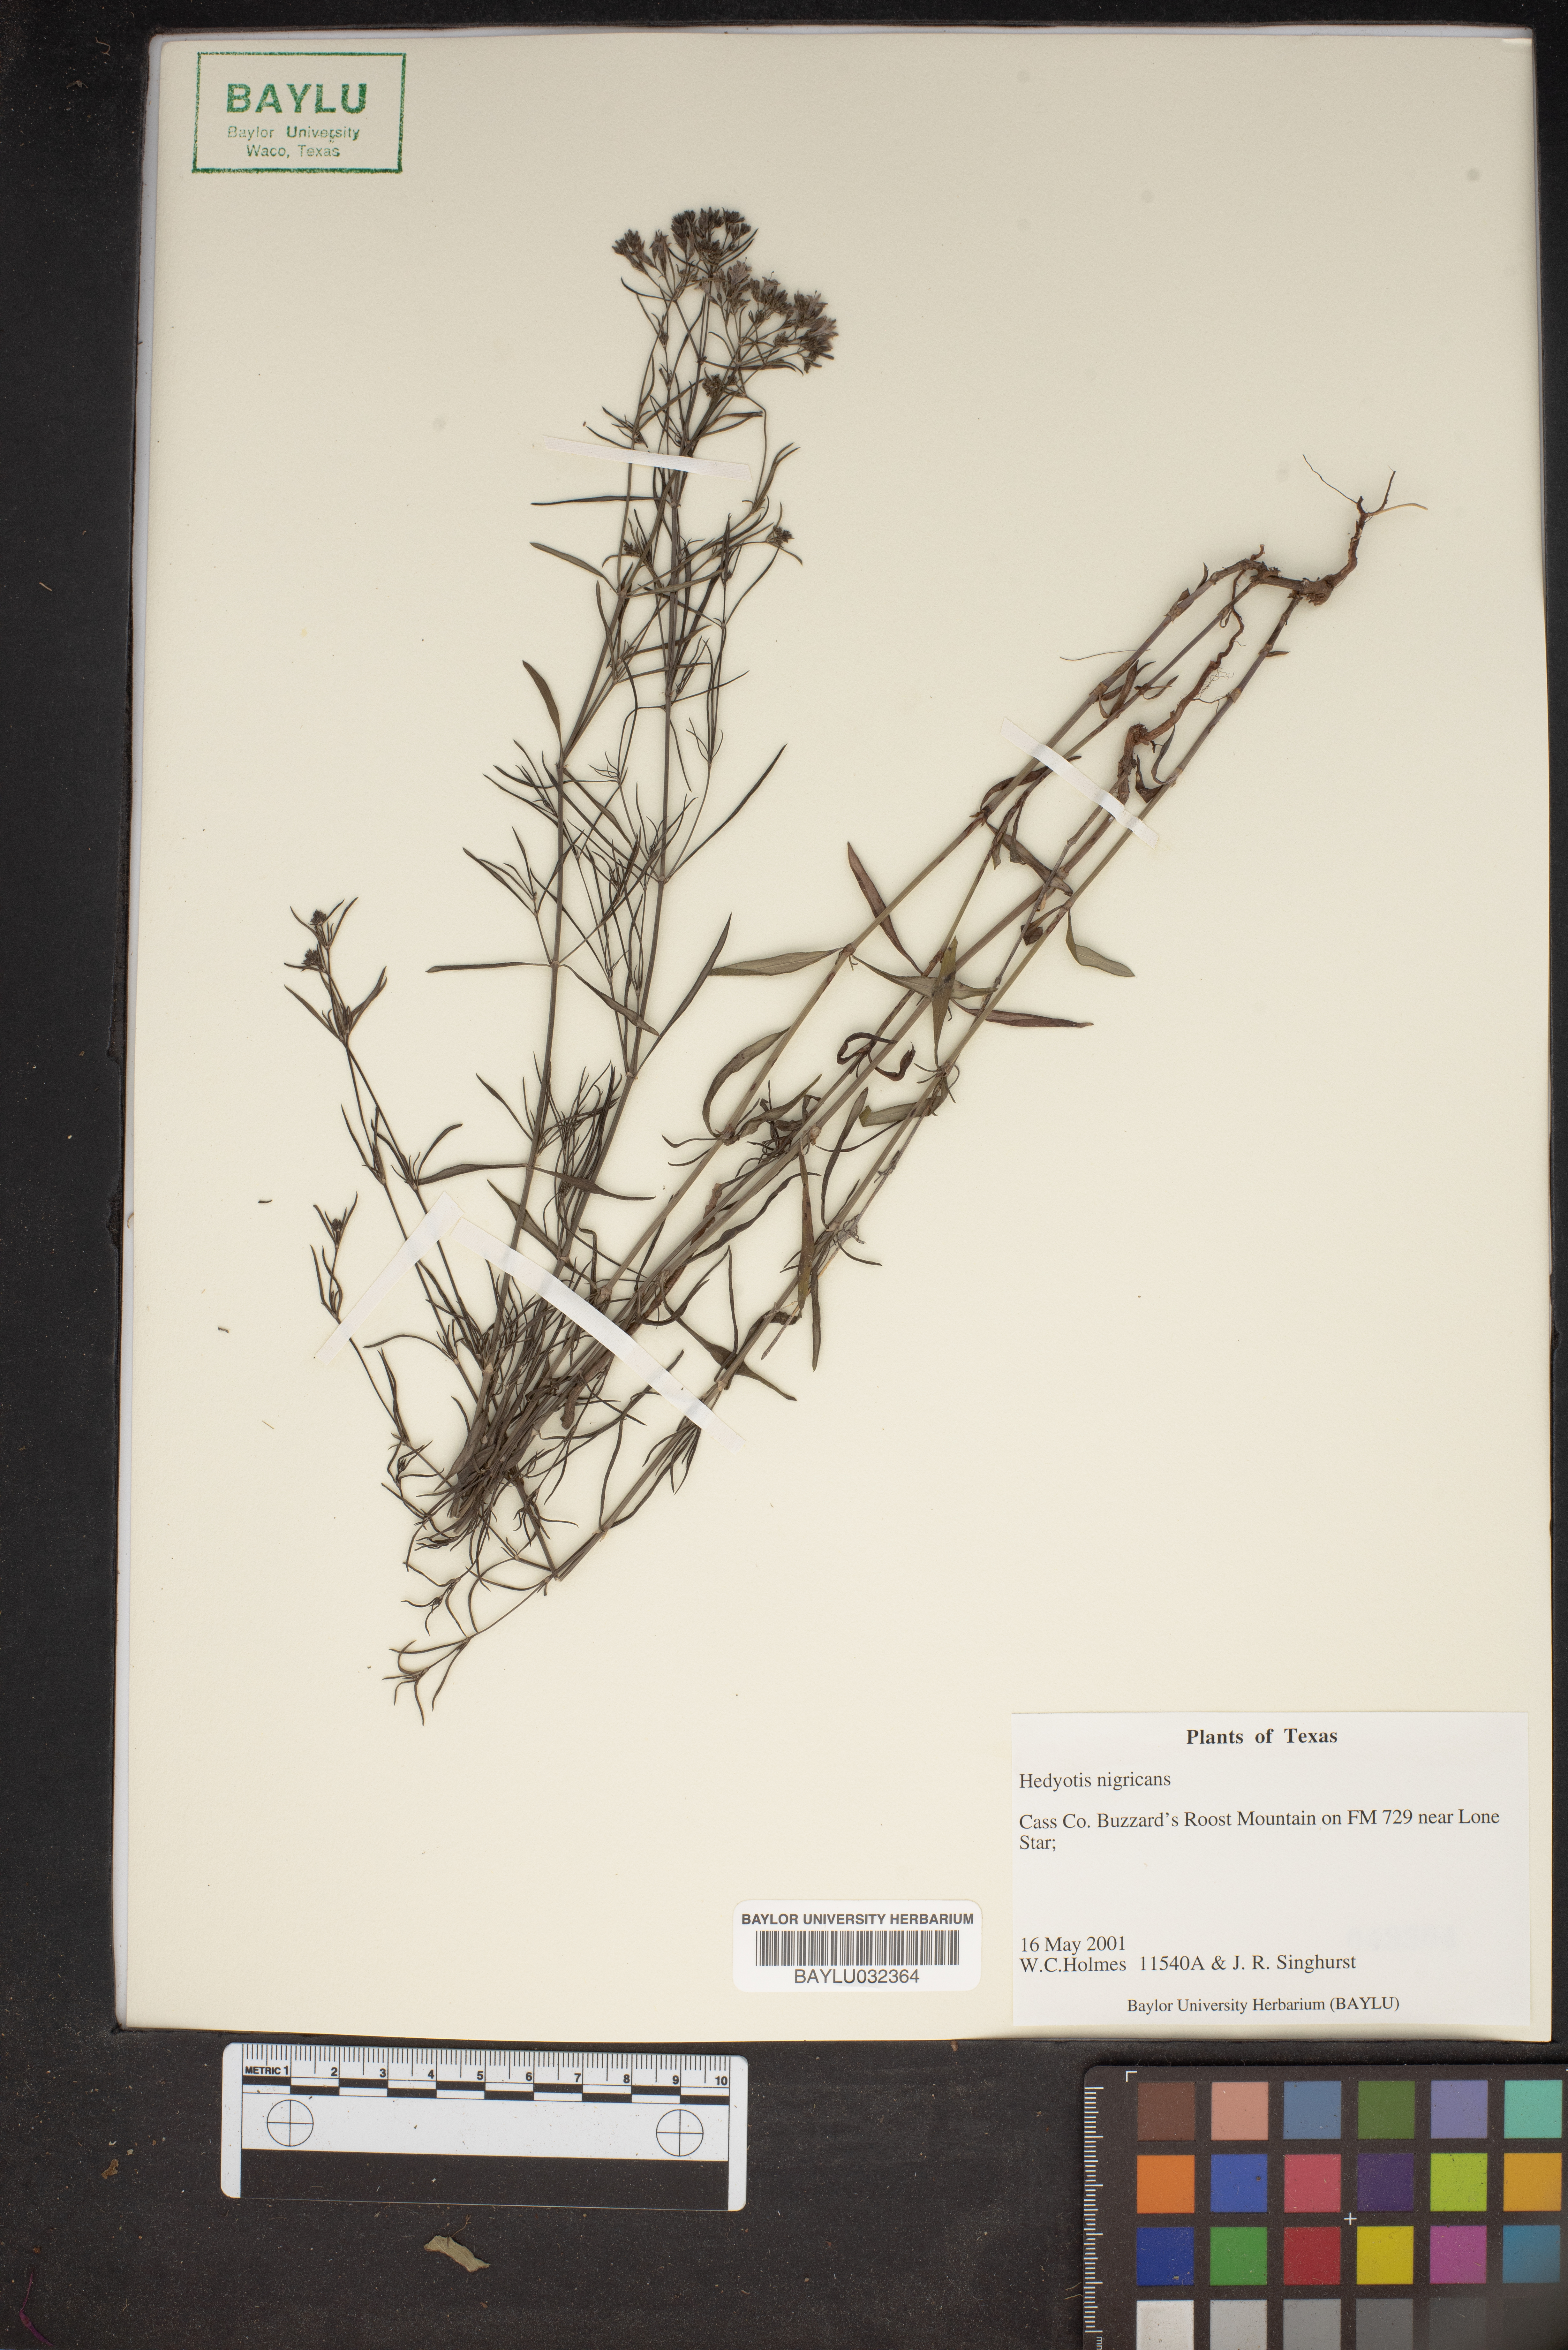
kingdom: Plantae
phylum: Tracheophyta
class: Magnoliopsida
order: Gentianales
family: Rubiaceae
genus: Stenaria
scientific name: Stenaria nigricans
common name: Diamondflowers
